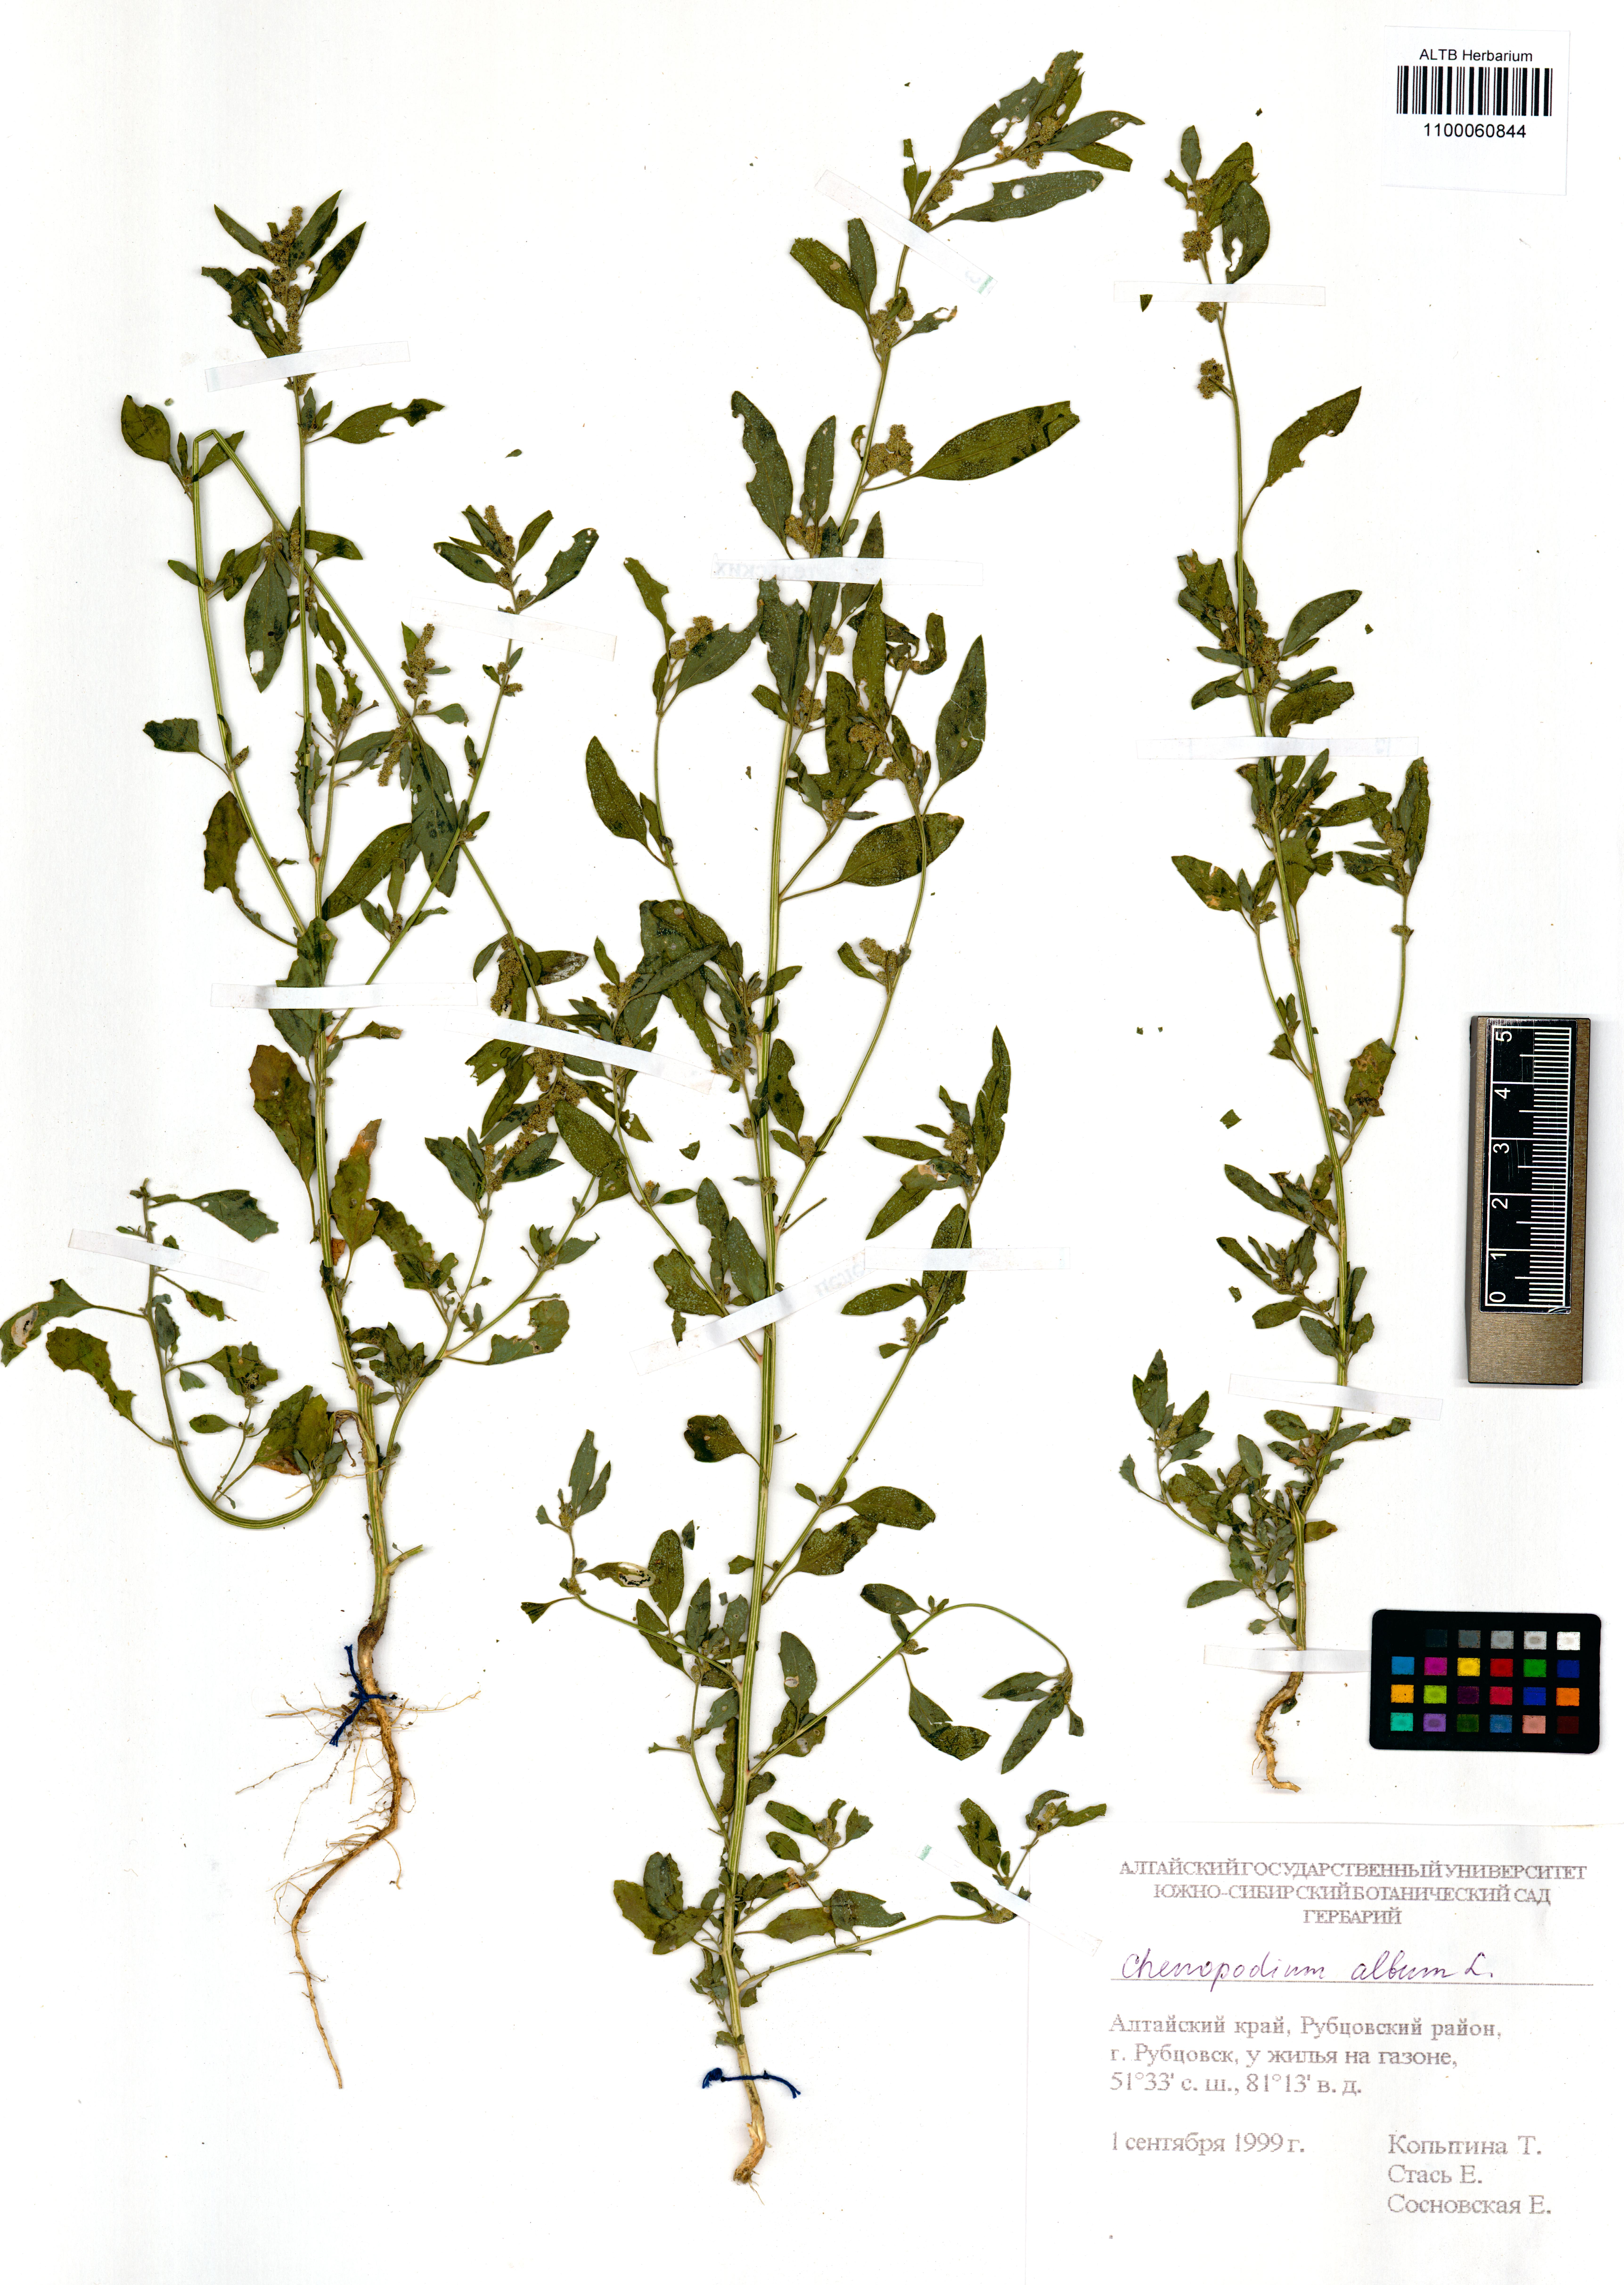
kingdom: Plantae
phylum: Tracheophyta
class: Magnoliopsida
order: Caryophyllales
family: Amaranthaceae
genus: Chenopodium
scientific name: Chenopodium album
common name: Fat-hen
